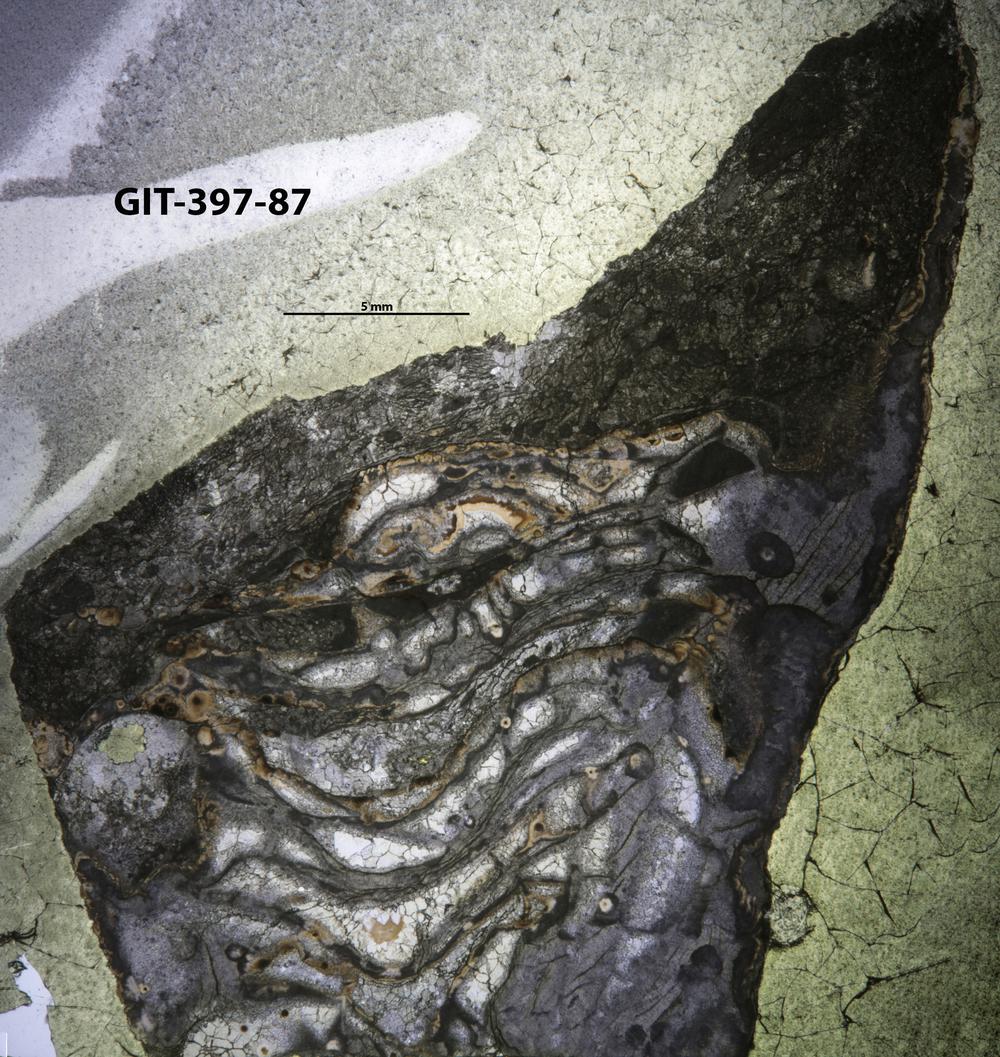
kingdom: Animalia
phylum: Cnidaria
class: Anthozoa
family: Streptelasmatidae
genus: Rhegmaphyllum
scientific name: Rhegmaphyllum
